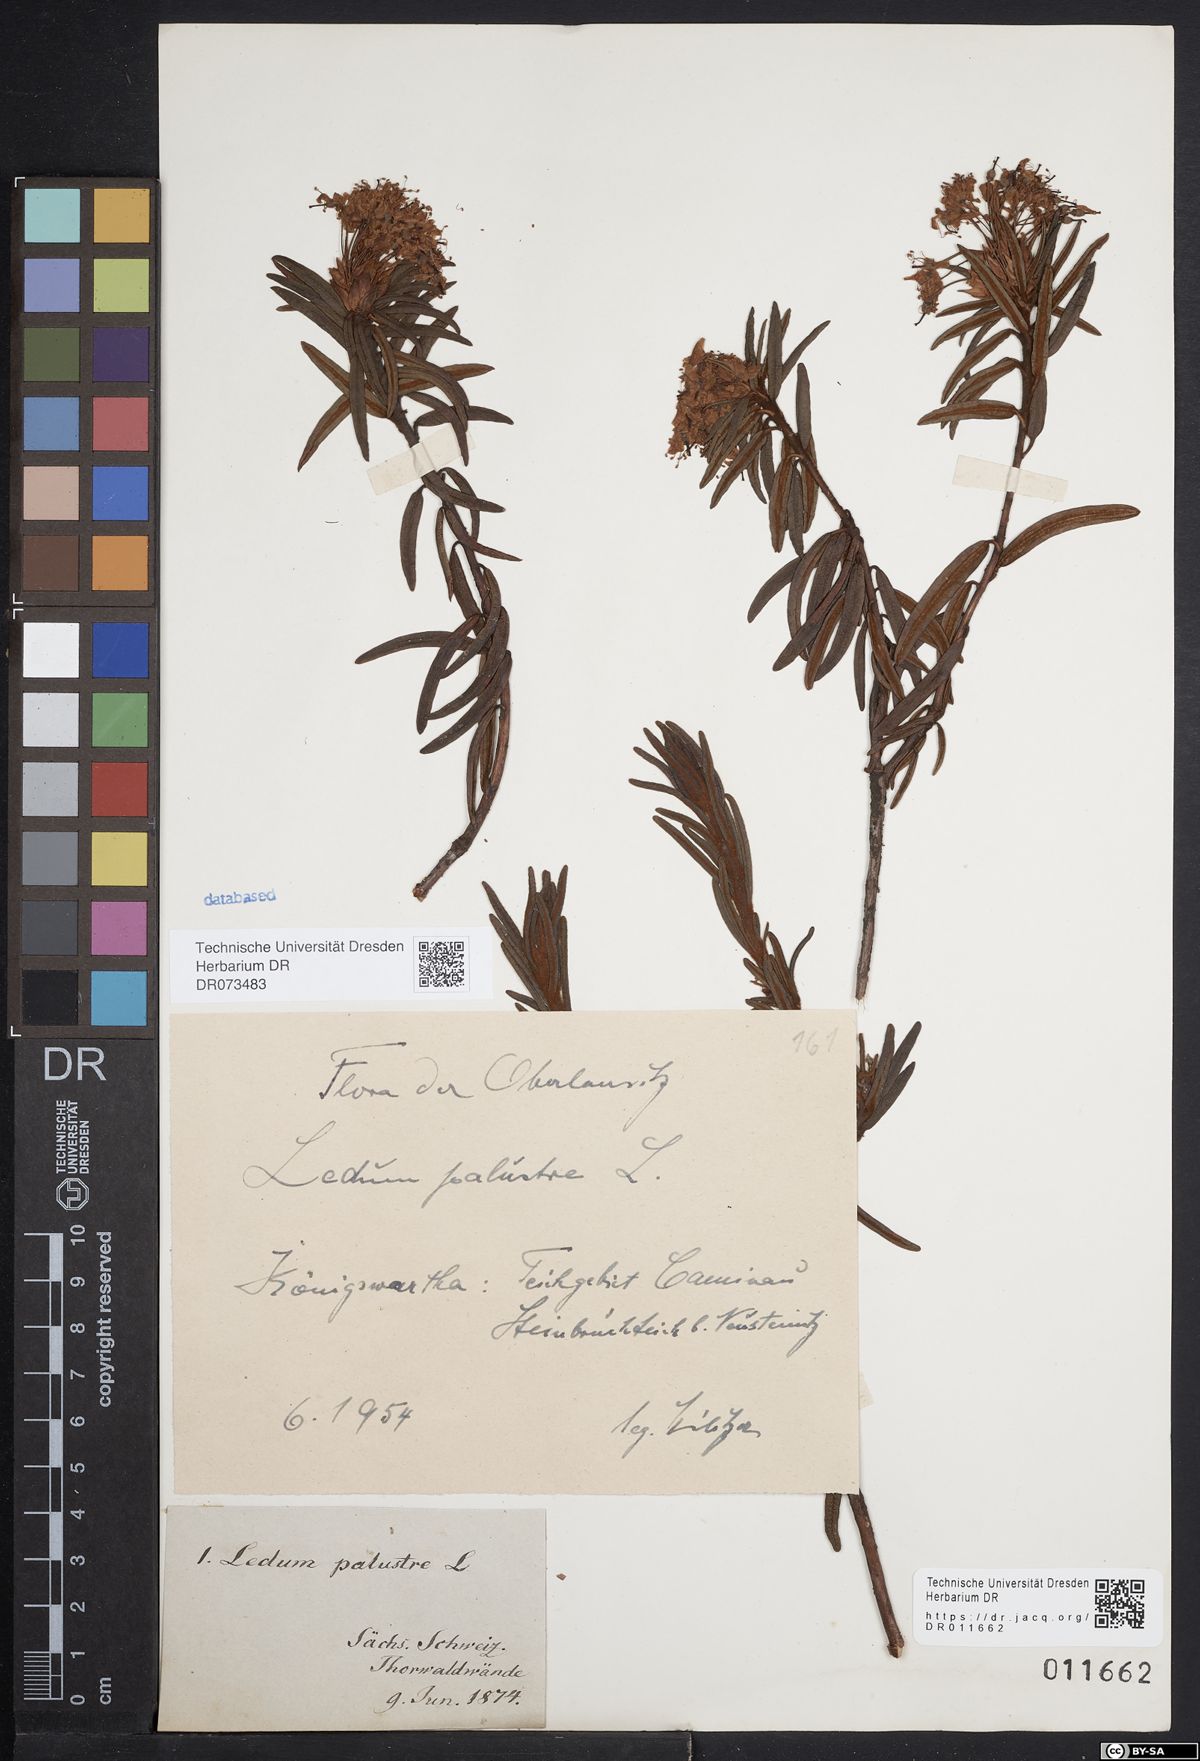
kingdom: Plantae
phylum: Tracheophyta
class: Magnoliopsida
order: Ericales
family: Ericaceae
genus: Rhododendron
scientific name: Rhododendron tomentosum
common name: Marsh labrador tea
